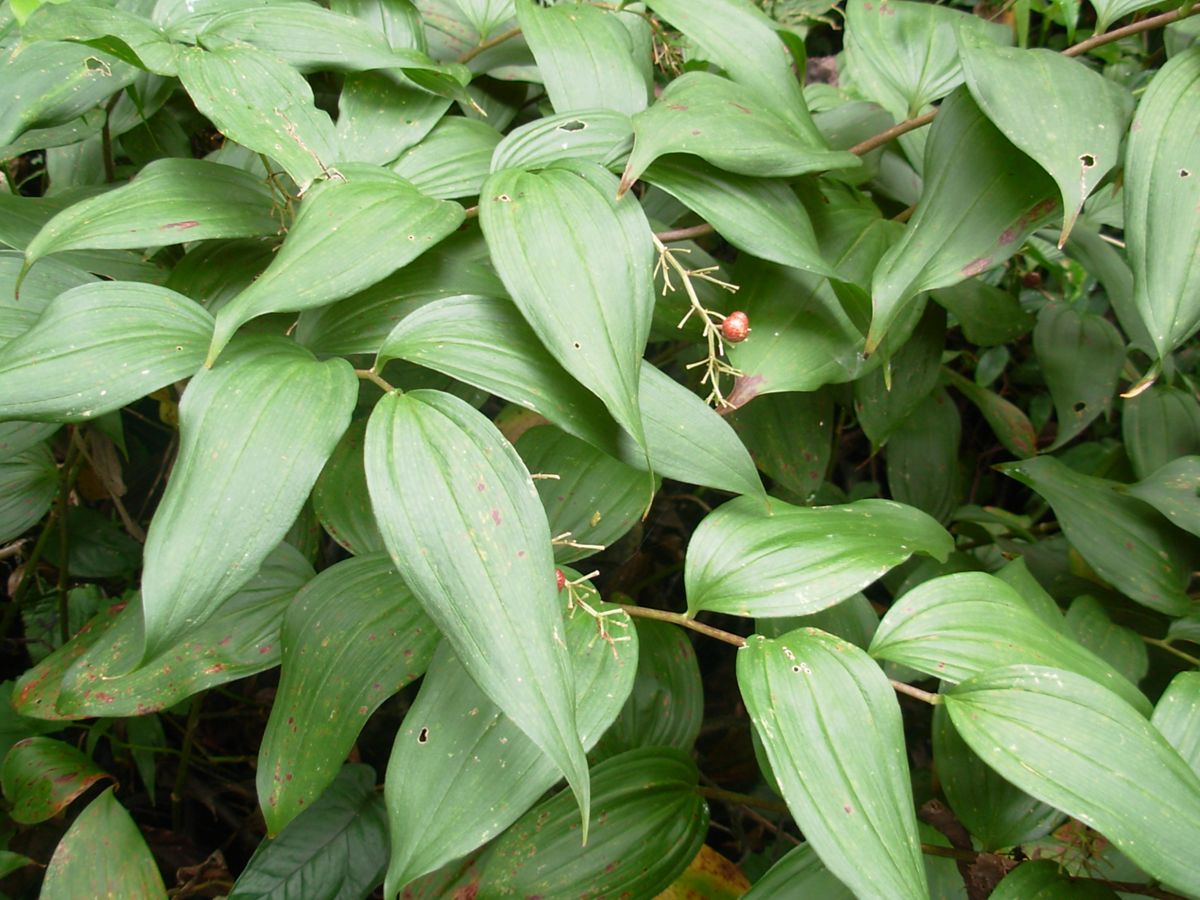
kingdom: Plantae
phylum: Tracheophyta
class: Liliopsida
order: Asparagales
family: Asparagaceae
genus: Maianthemum
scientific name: Maianthemum paniculatum
